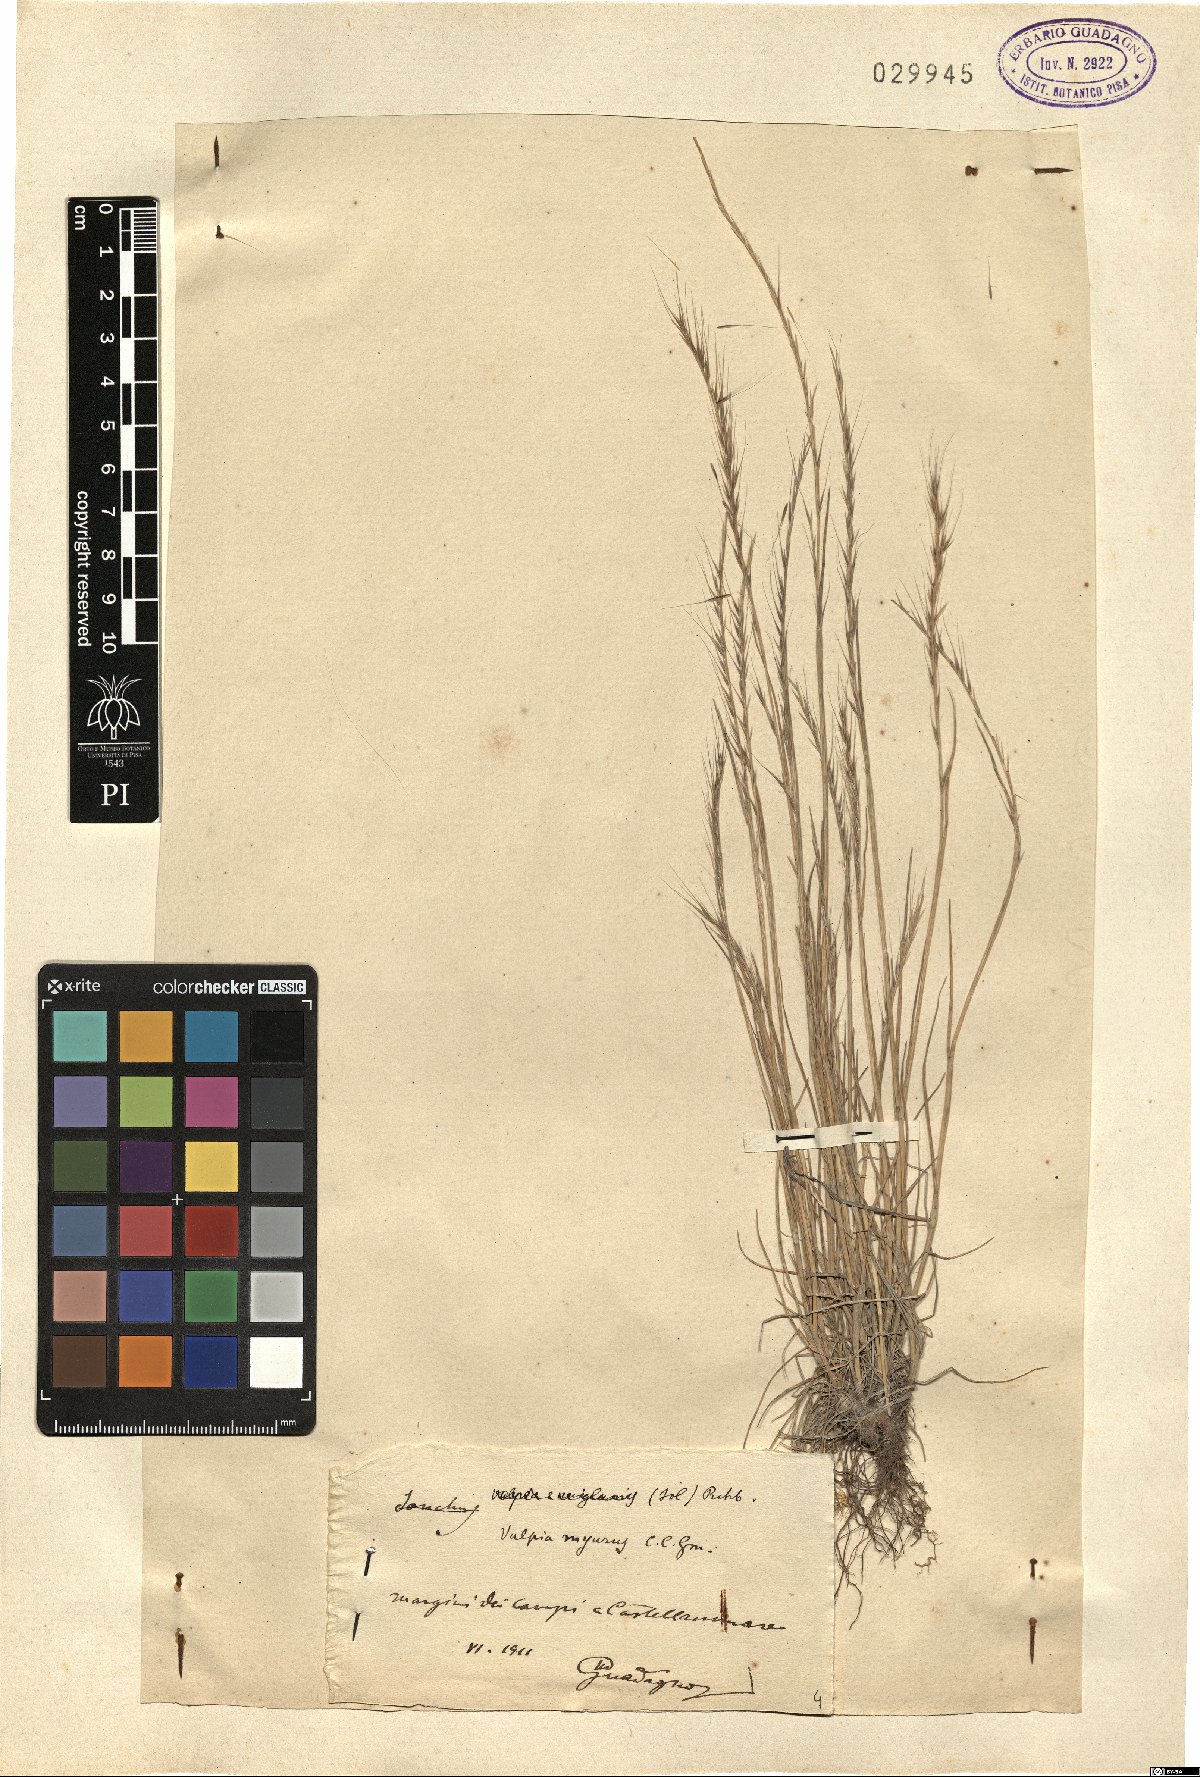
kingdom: Plantae
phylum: Tracheophyta
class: Liliopsida
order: Poales
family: Poaceae
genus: Festuca
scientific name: Festuca myuros
